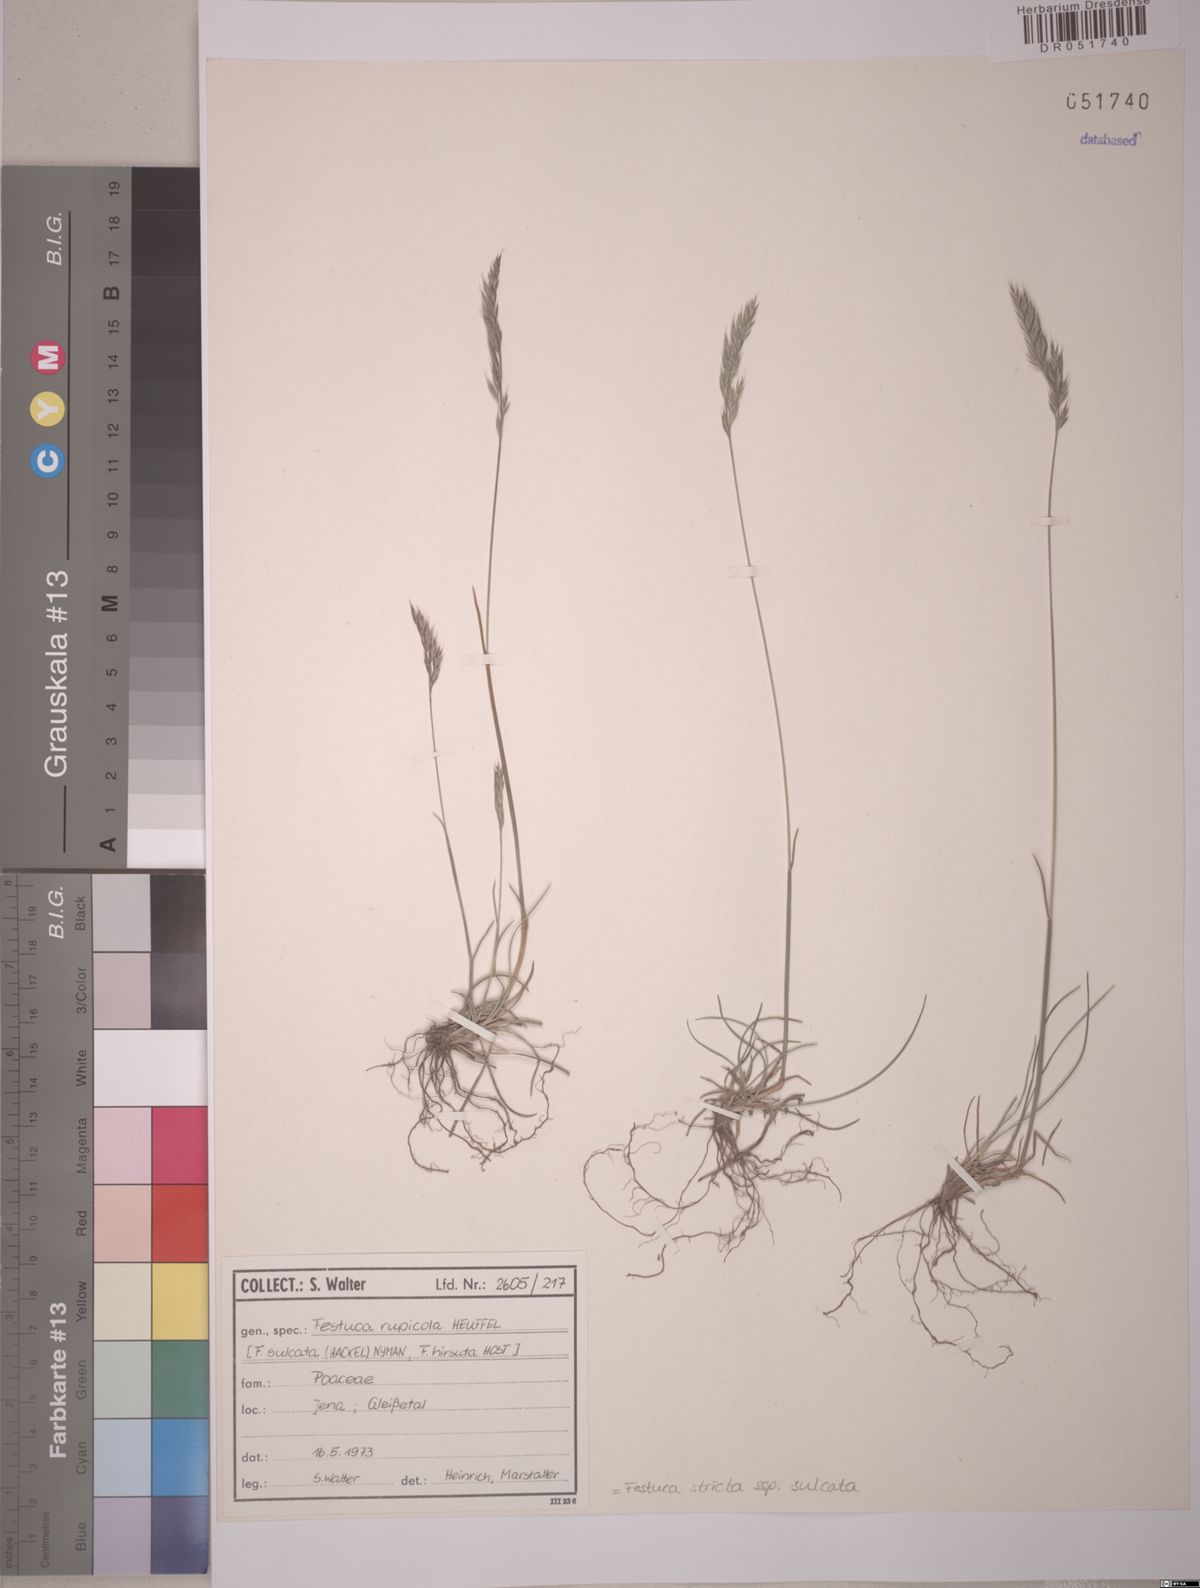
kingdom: Plantae
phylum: Tracheophyta
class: Liliopsida
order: Poales
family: Poaceae
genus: Festuca
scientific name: Festuca rupicola
